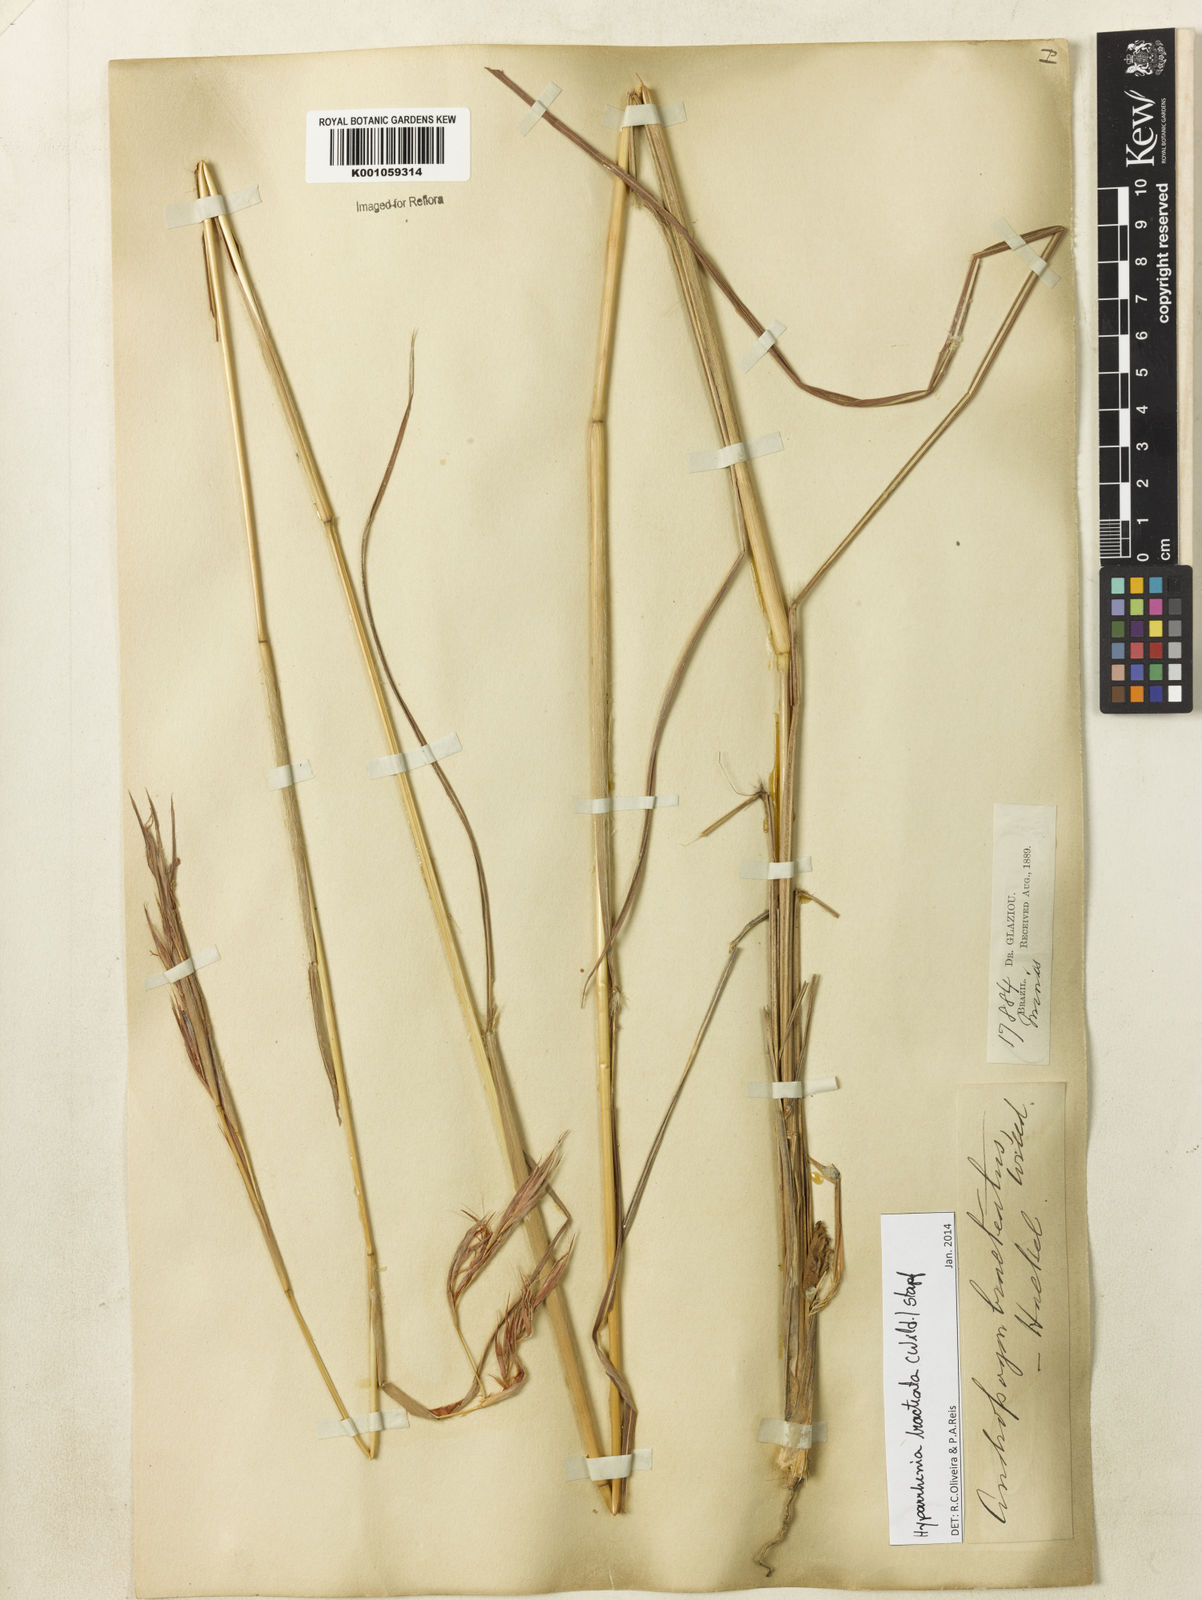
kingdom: Plantae
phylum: Tracheophyta
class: Liliopsida
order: Poales
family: Poaceae
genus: Hyparrhenia
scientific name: Hyparrhenia bracteata
